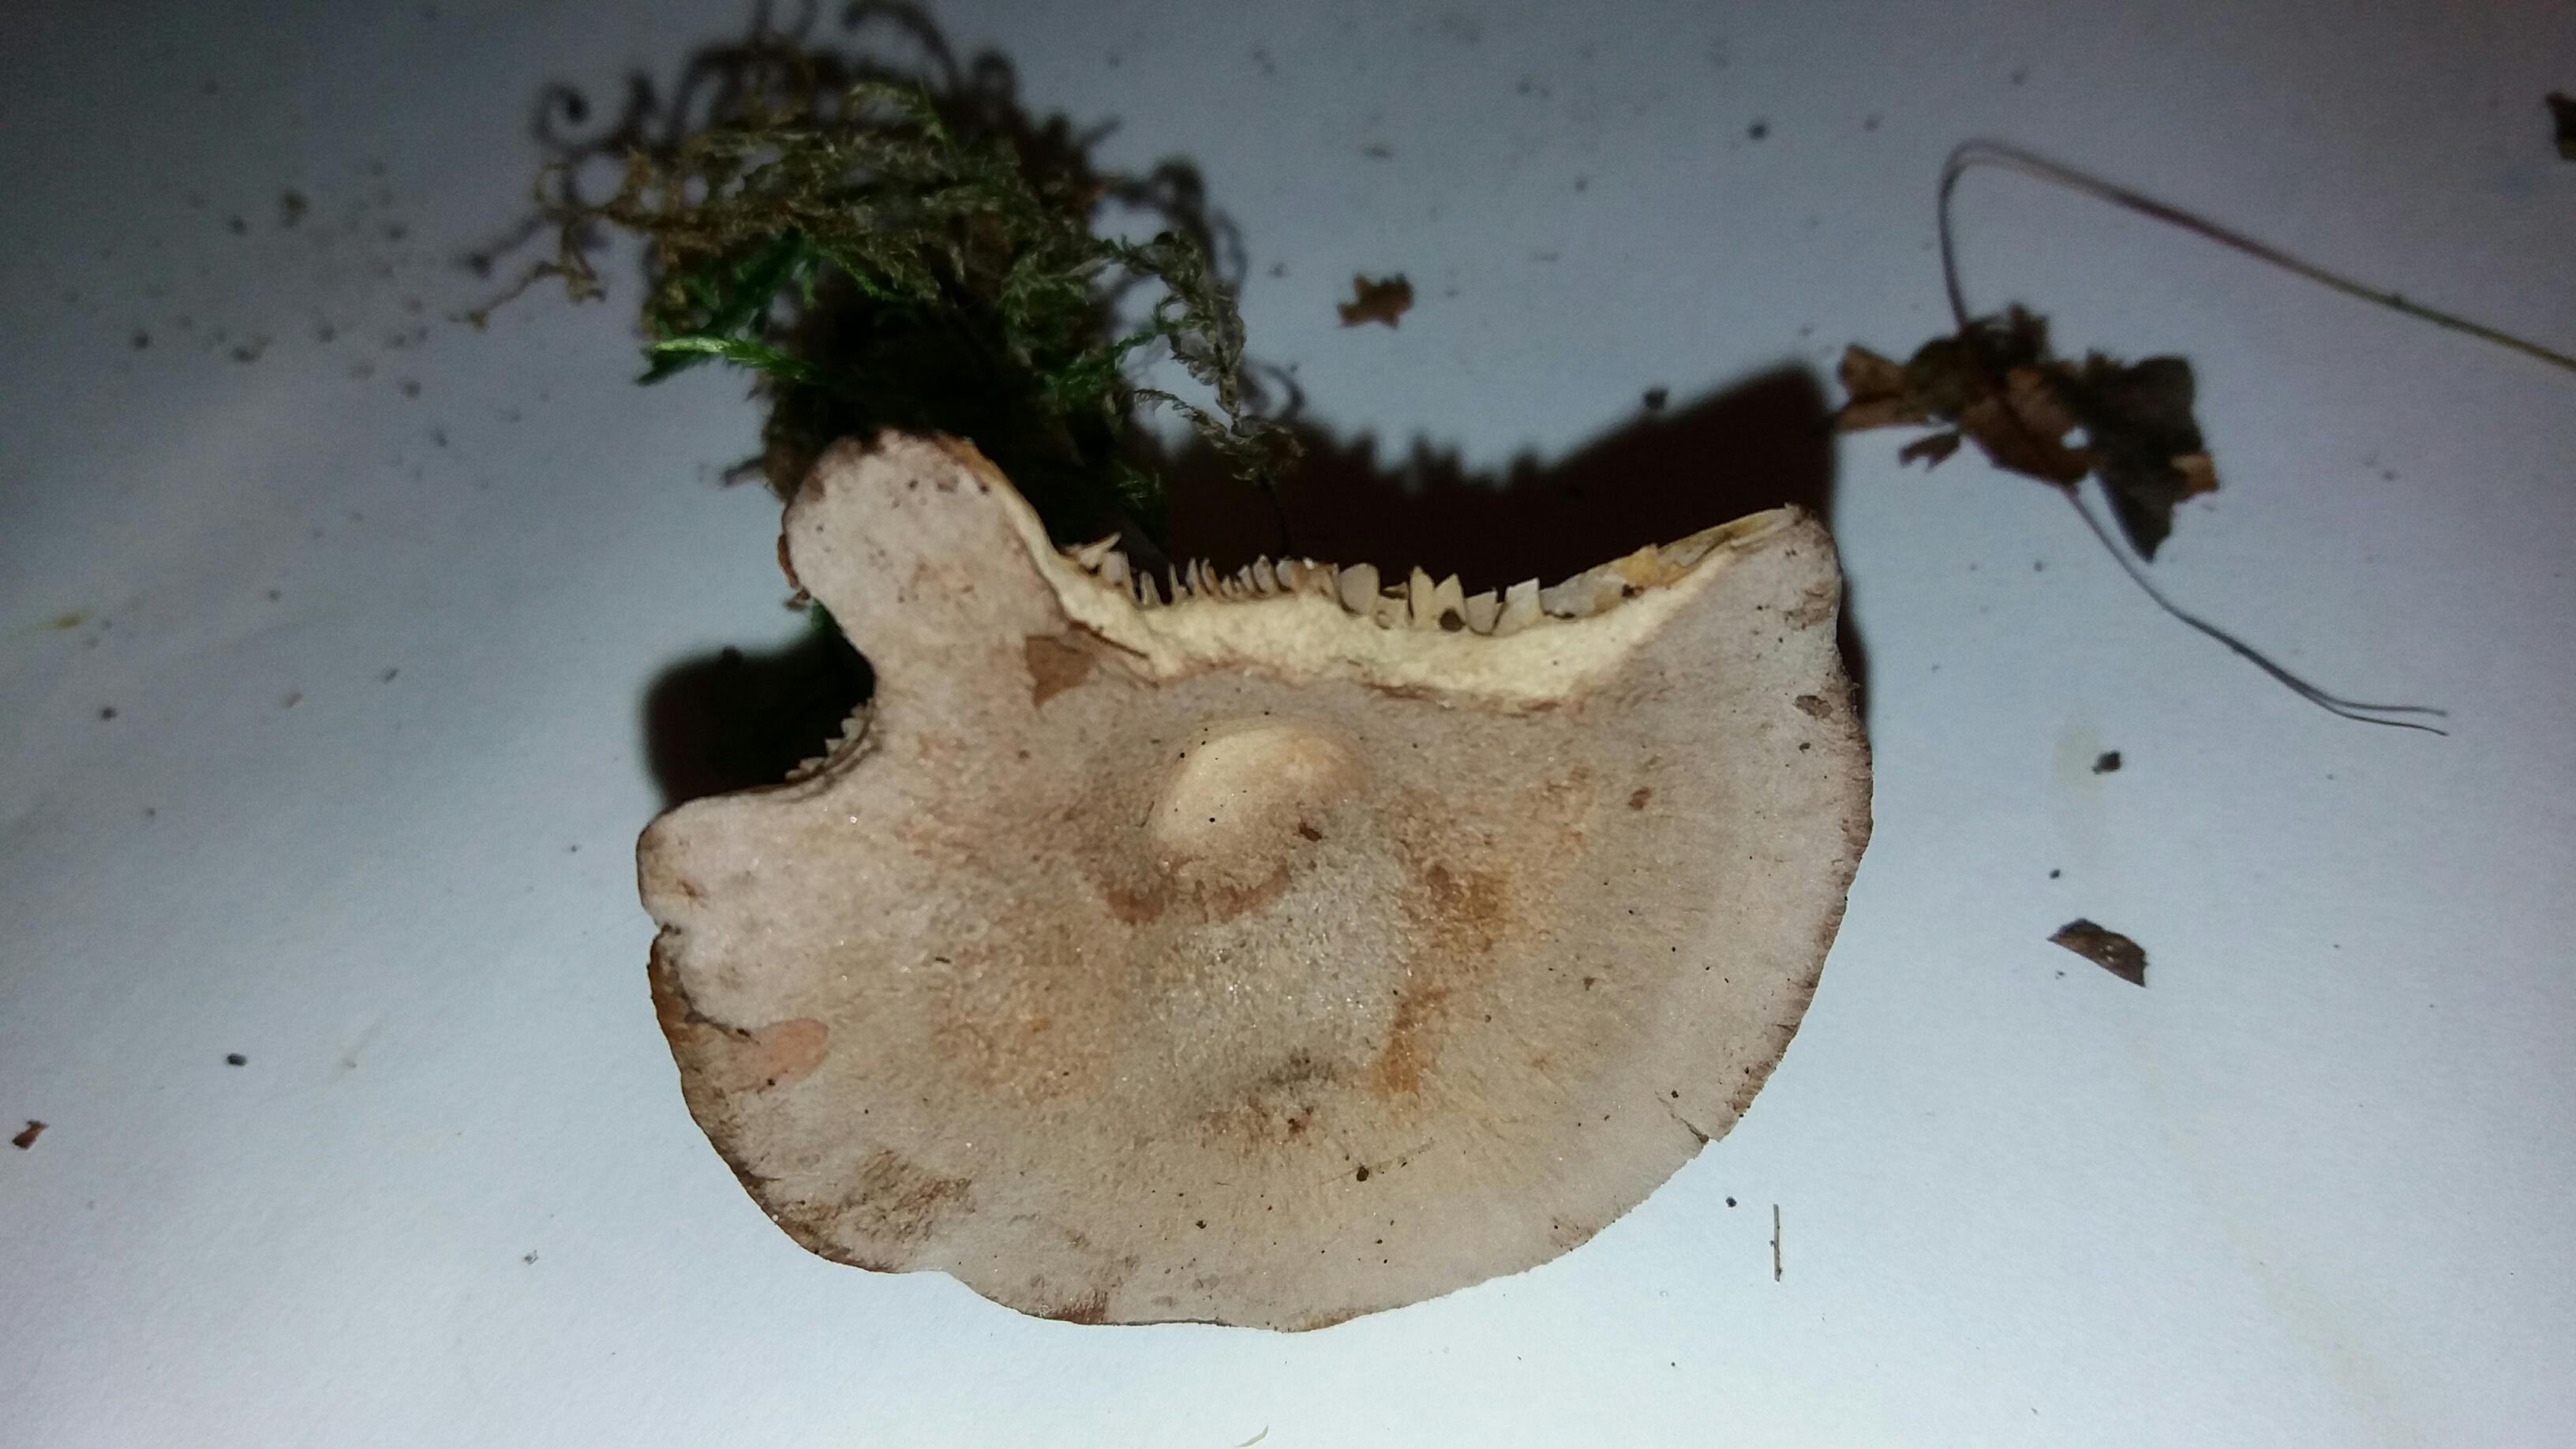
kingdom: Fungi
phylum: Basidiomycota
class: Agaricomycetes
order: Russulales
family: Russulaceae
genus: Lactarius
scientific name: Lactarius glyciosmus
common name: kokos-mælkehat
